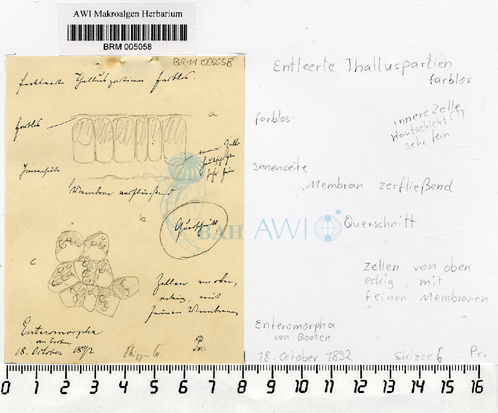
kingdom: Plantae
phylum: Chlorophyta
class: Ulvophyceae
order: Ulvales
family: Ulvaceae
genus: Ulva
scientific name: Ulva
